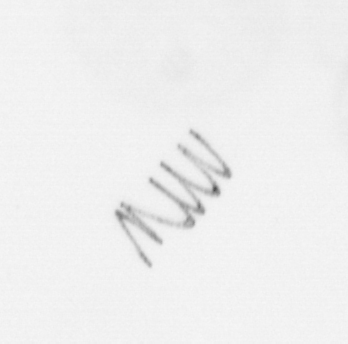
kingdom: Chromista
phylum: Ochrophyta
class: Bacillariophyceae
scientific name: Bacillariophyceae
